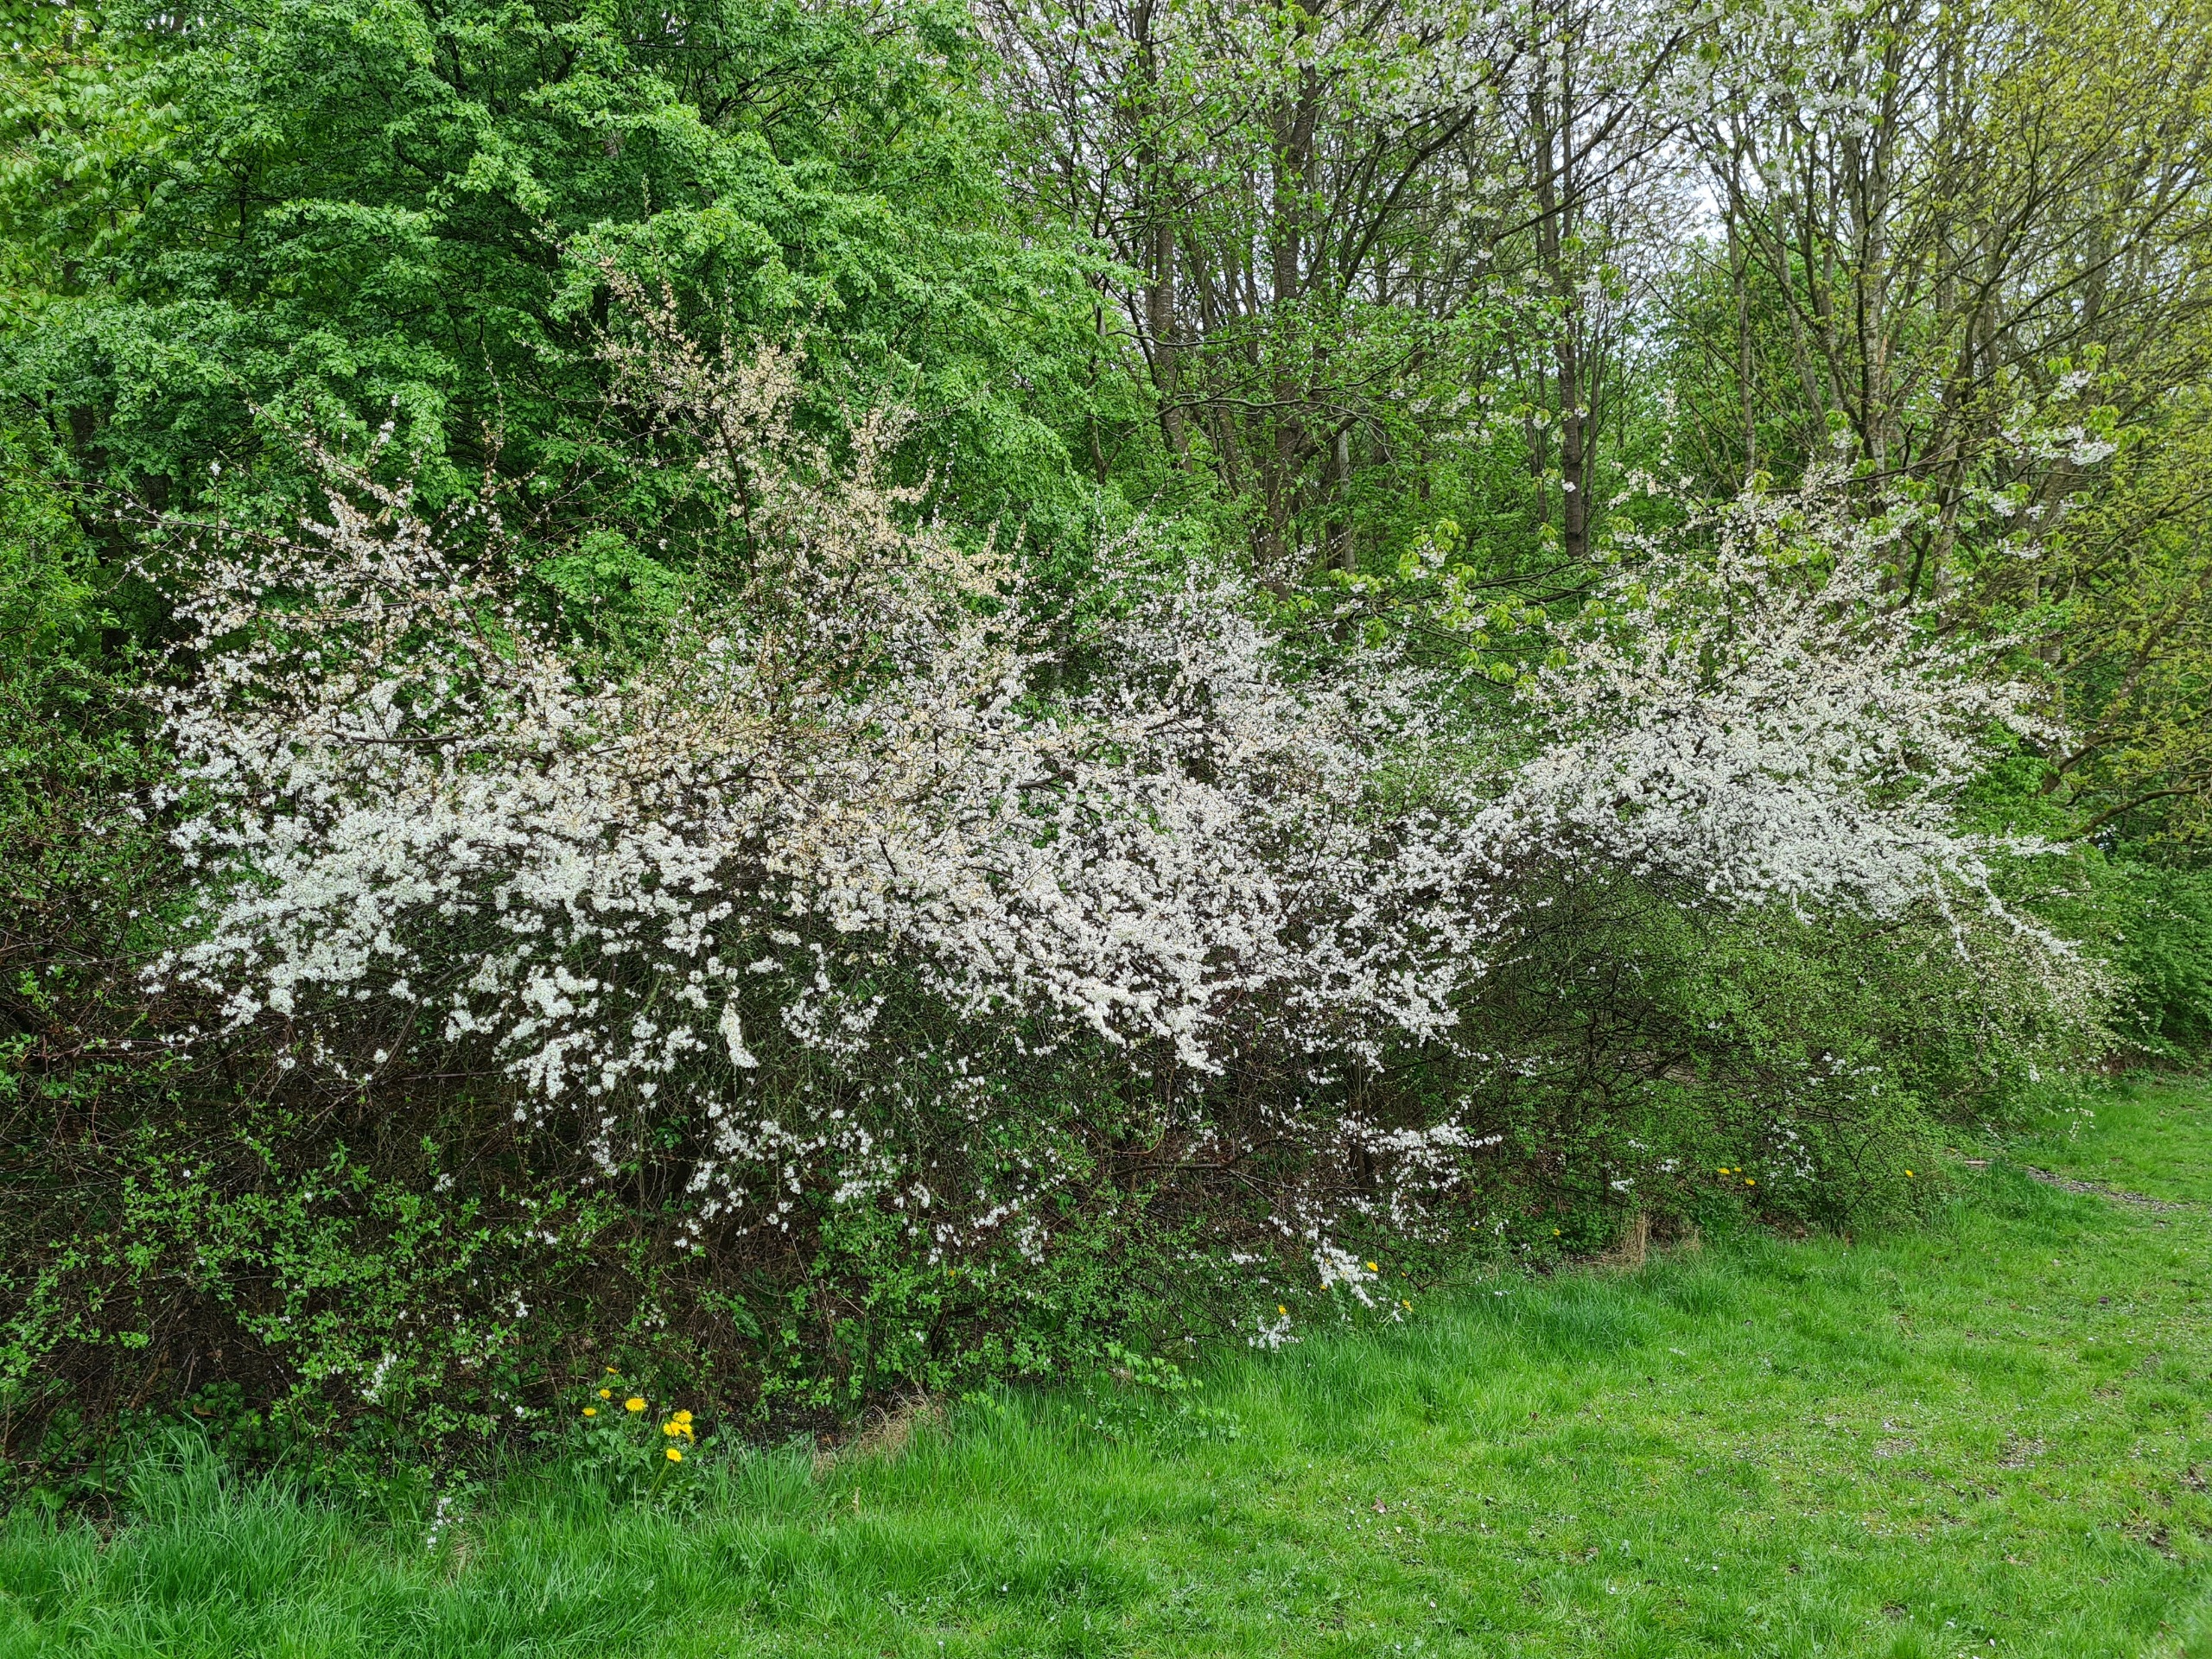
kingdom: Plantae
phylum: Tracheophyta
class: Magnoliopsida
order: Rosales
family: Rosaceae
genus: Prunus
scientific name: Prunus spinosa
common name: Slåen
